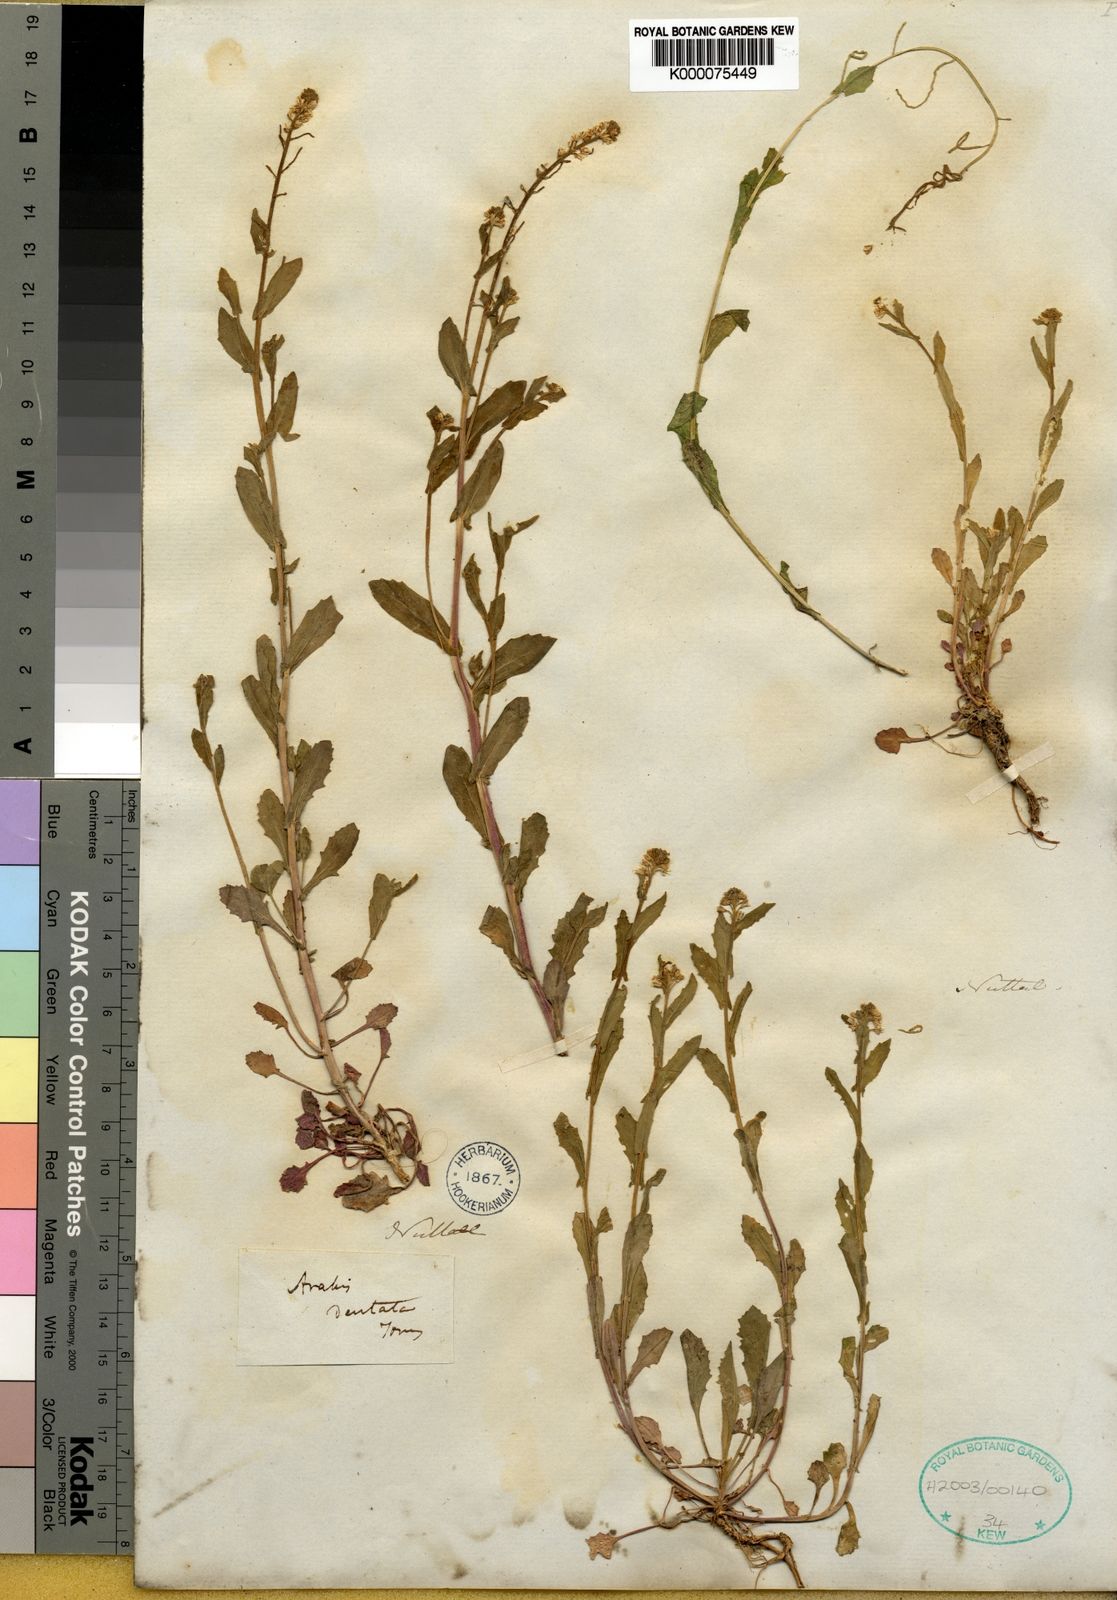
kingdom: Plantae
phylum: Tracheophyta
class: Magnoliopsida
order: Brassicales
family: Brassicaceae
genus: Arabis
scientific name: Arabis
